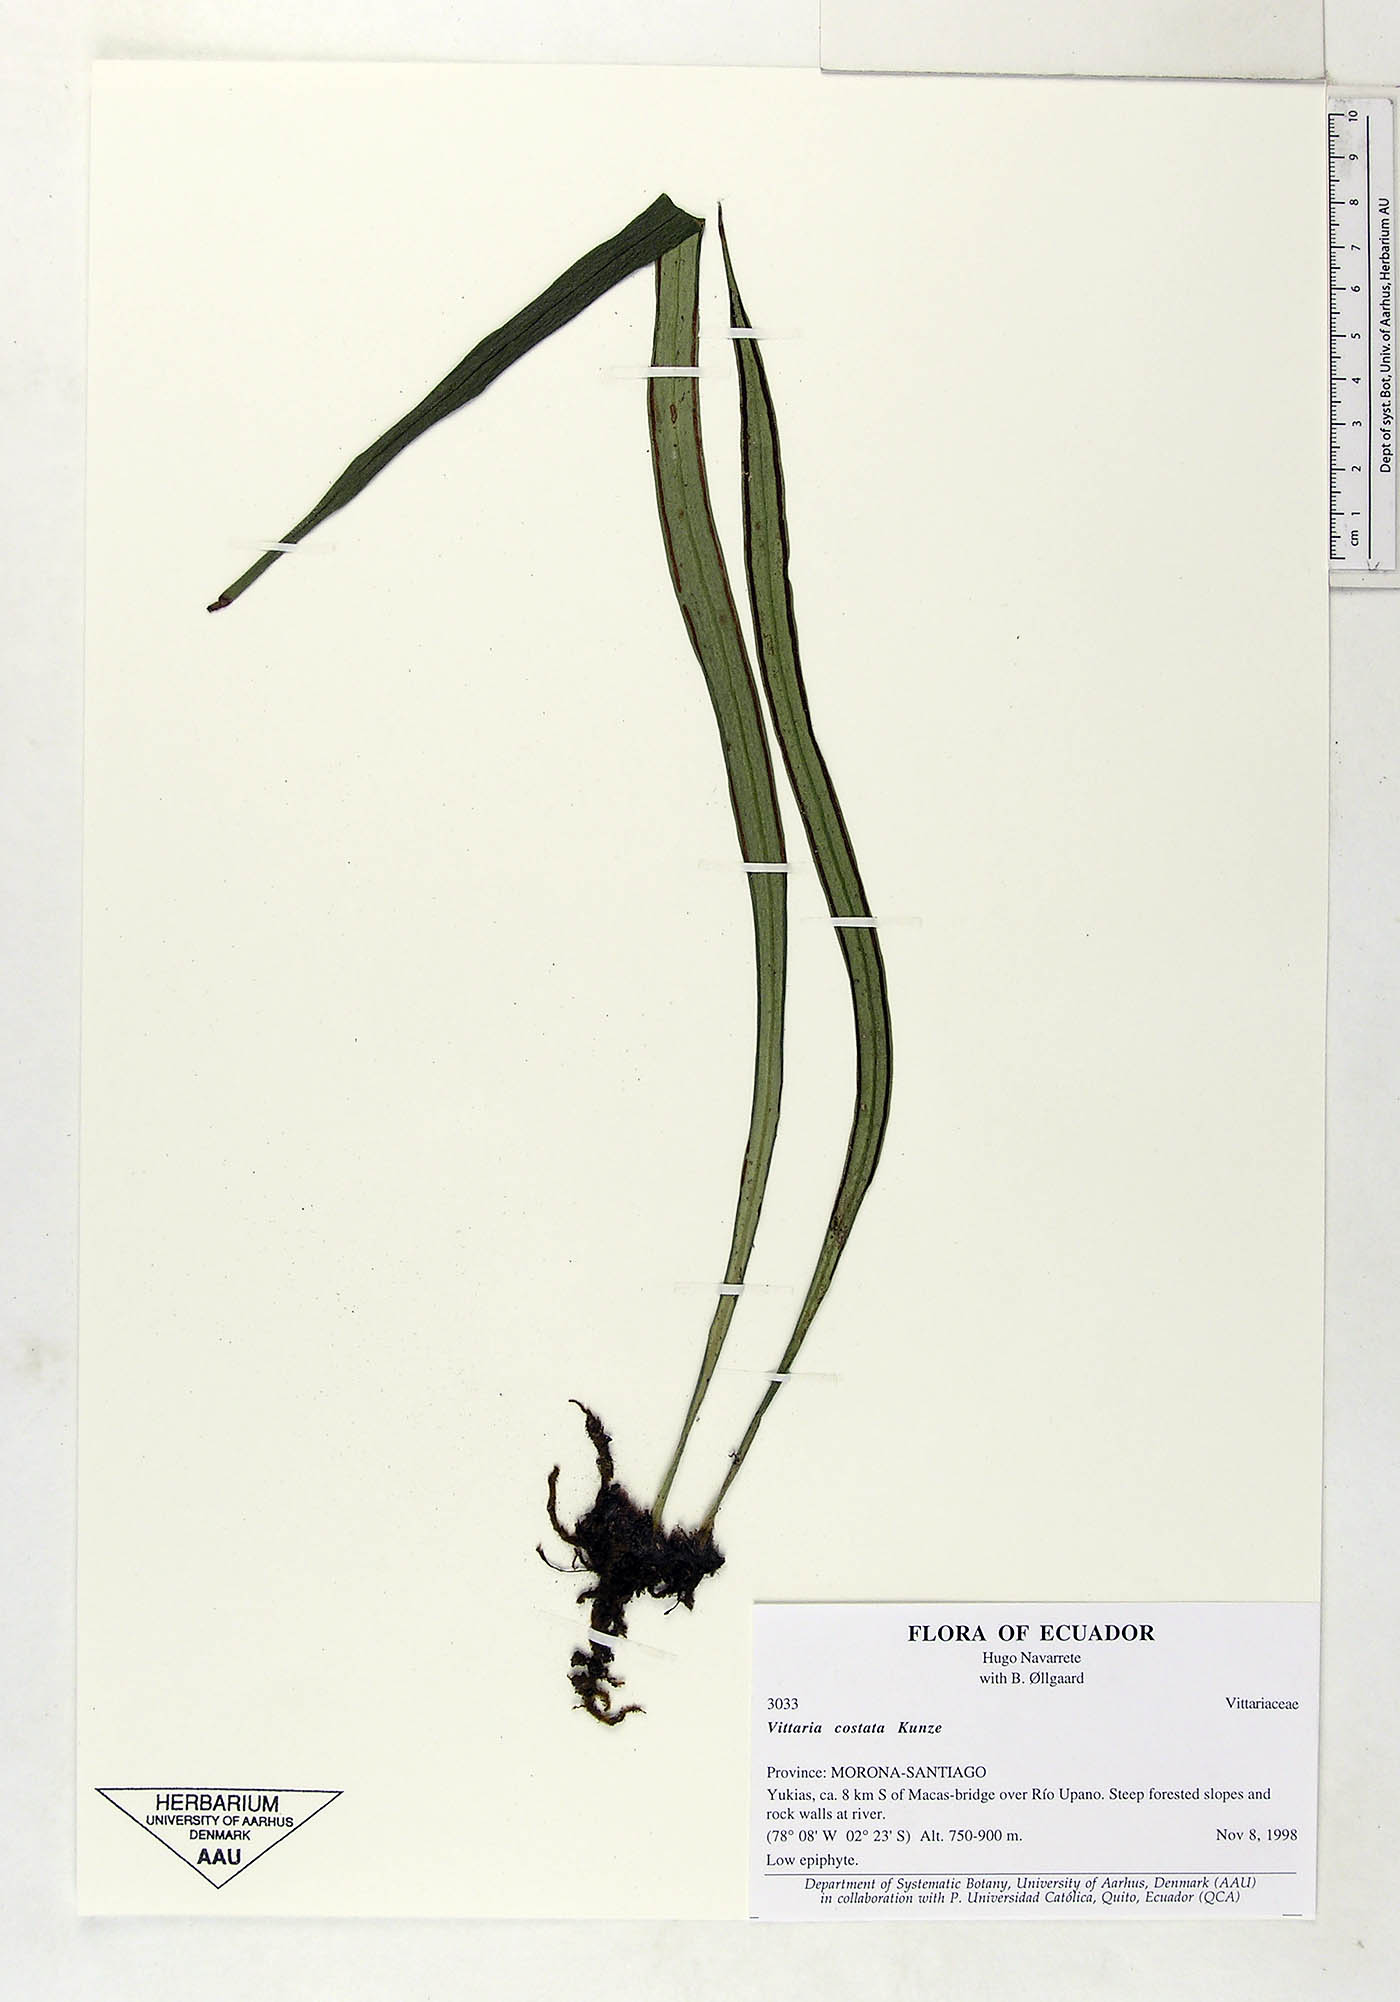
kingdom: Plantae
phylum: Tracheophyta
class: Polypodiopsida
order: Polypodiales
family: Pteridaceae
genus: Ananthacorus
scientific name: Ananthacorus angustifolius
